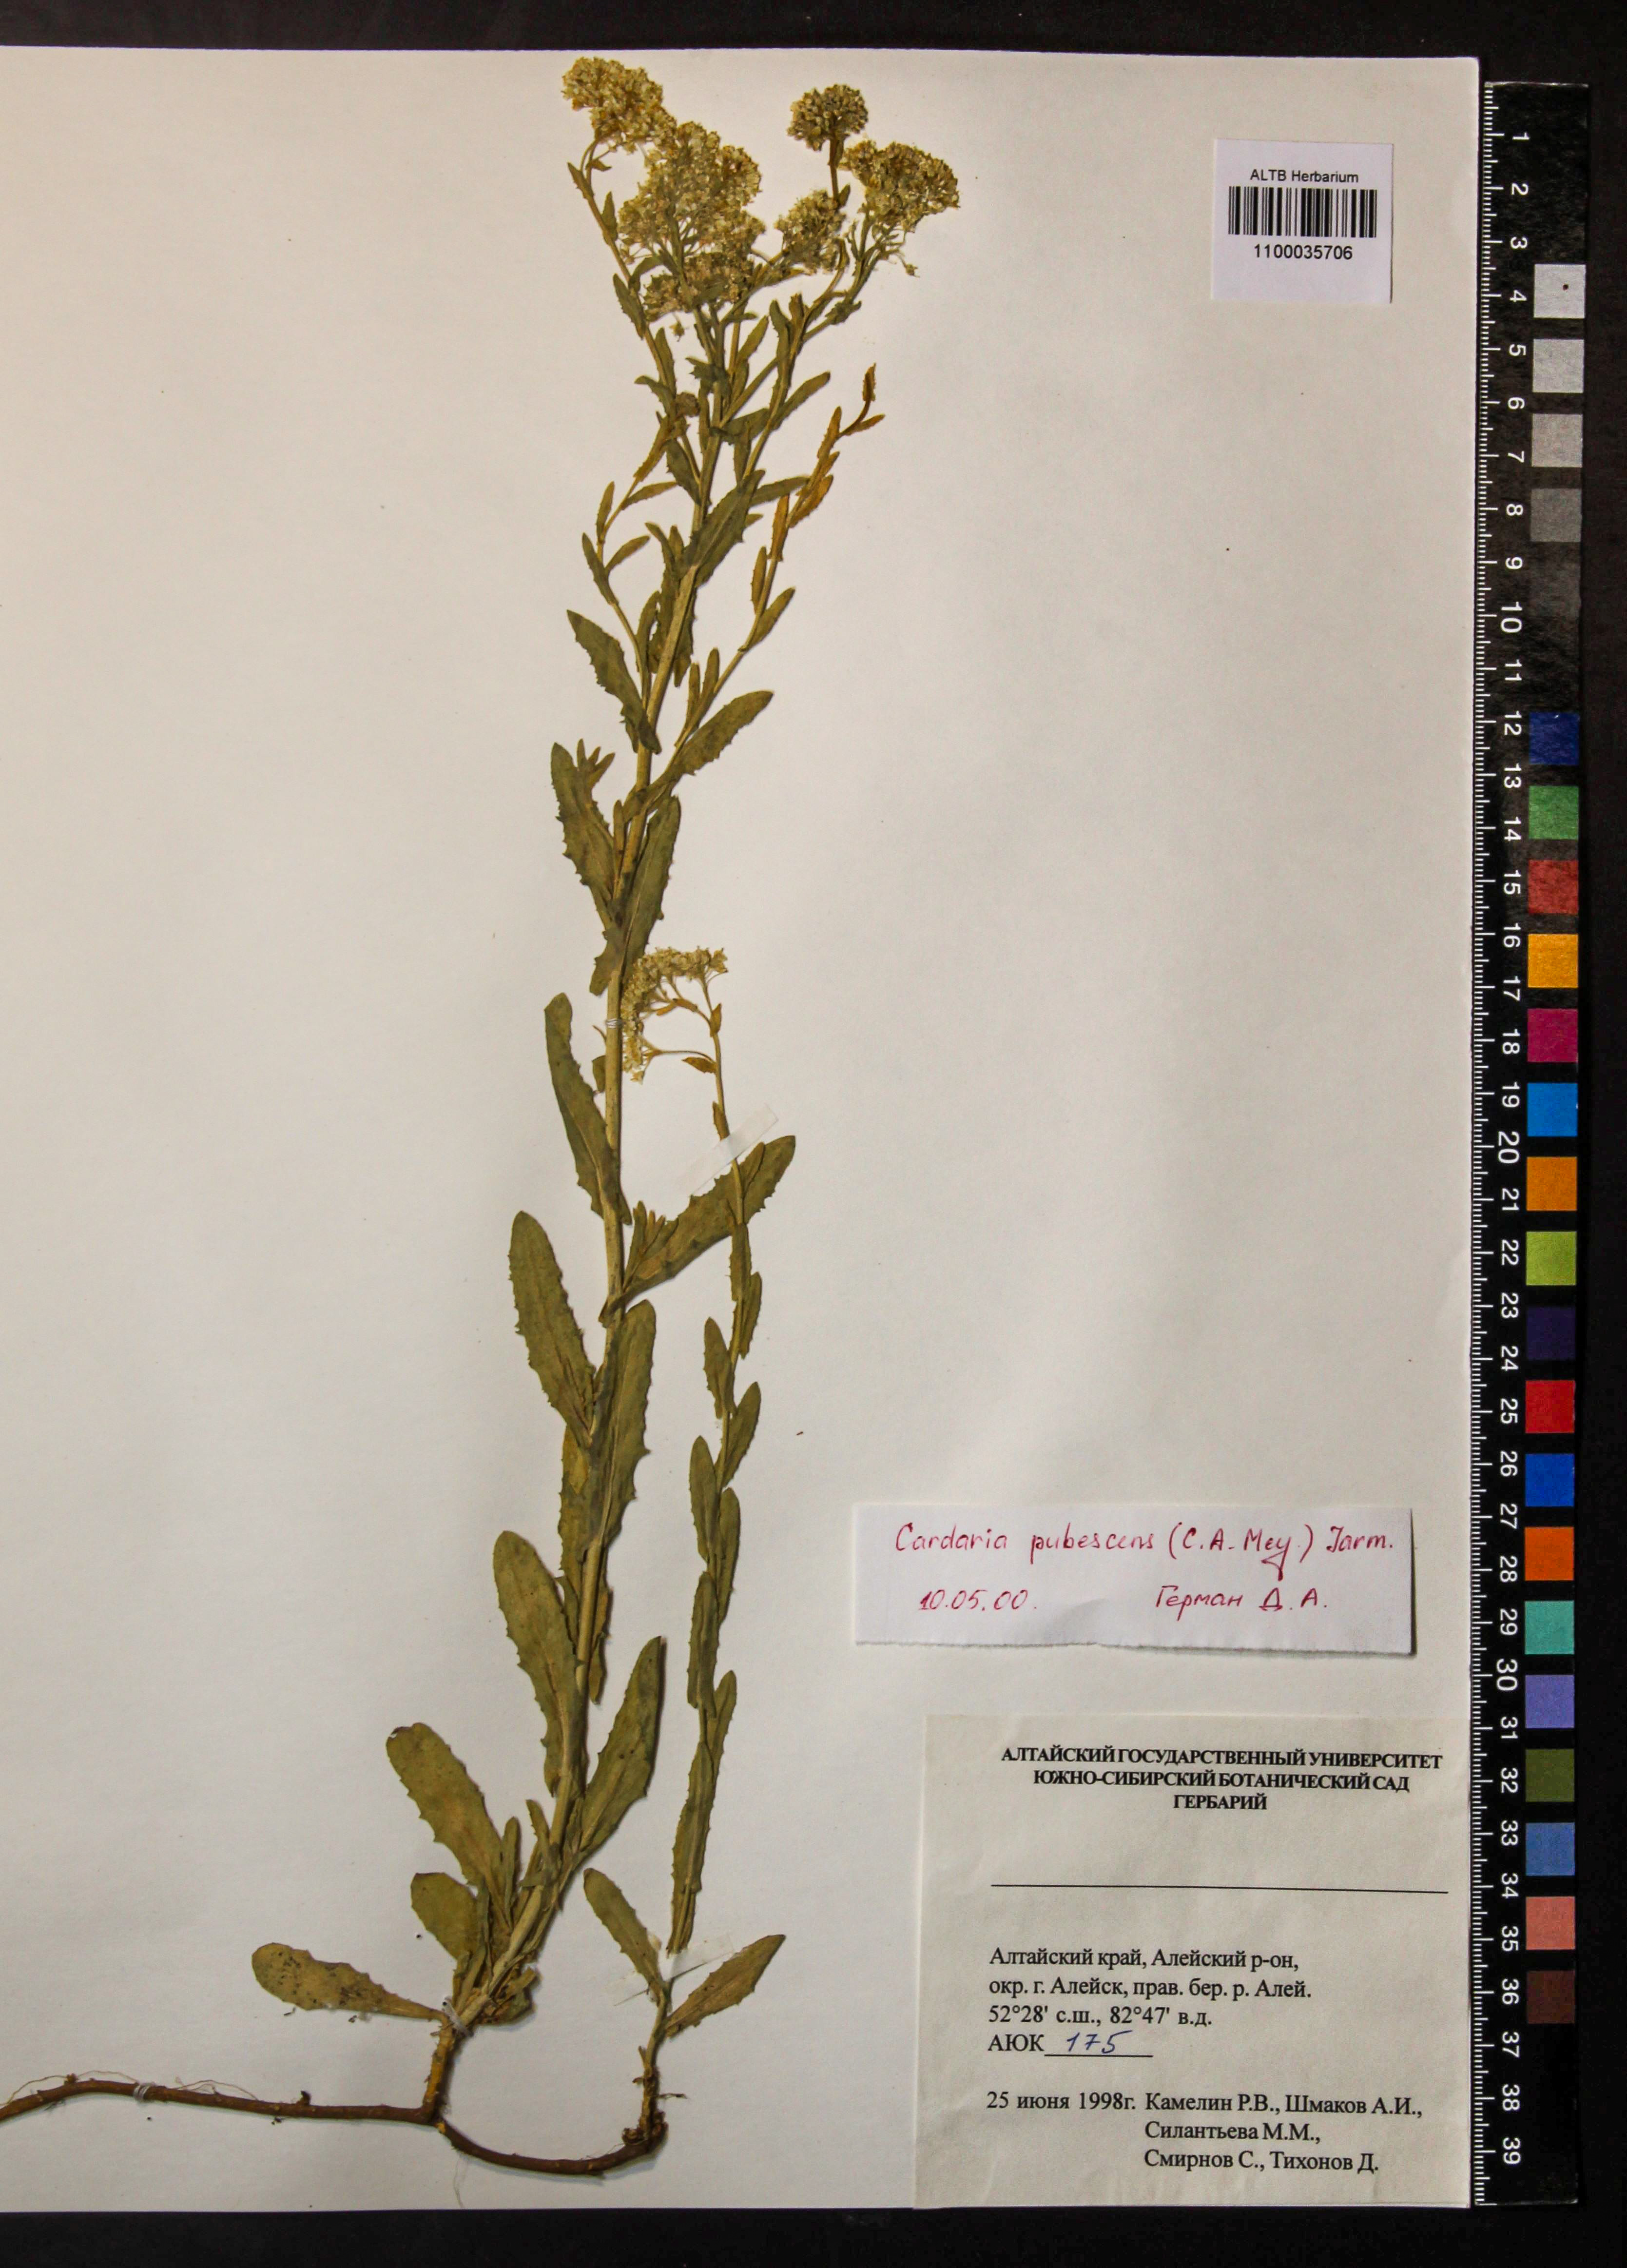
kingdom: Plantae
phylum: Tracheophyta
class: Magnoliopsida
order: Brassicales
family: Brassicaceae
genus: Lepidium
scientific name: Lepidium appelianum
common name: Hairy whitetop
